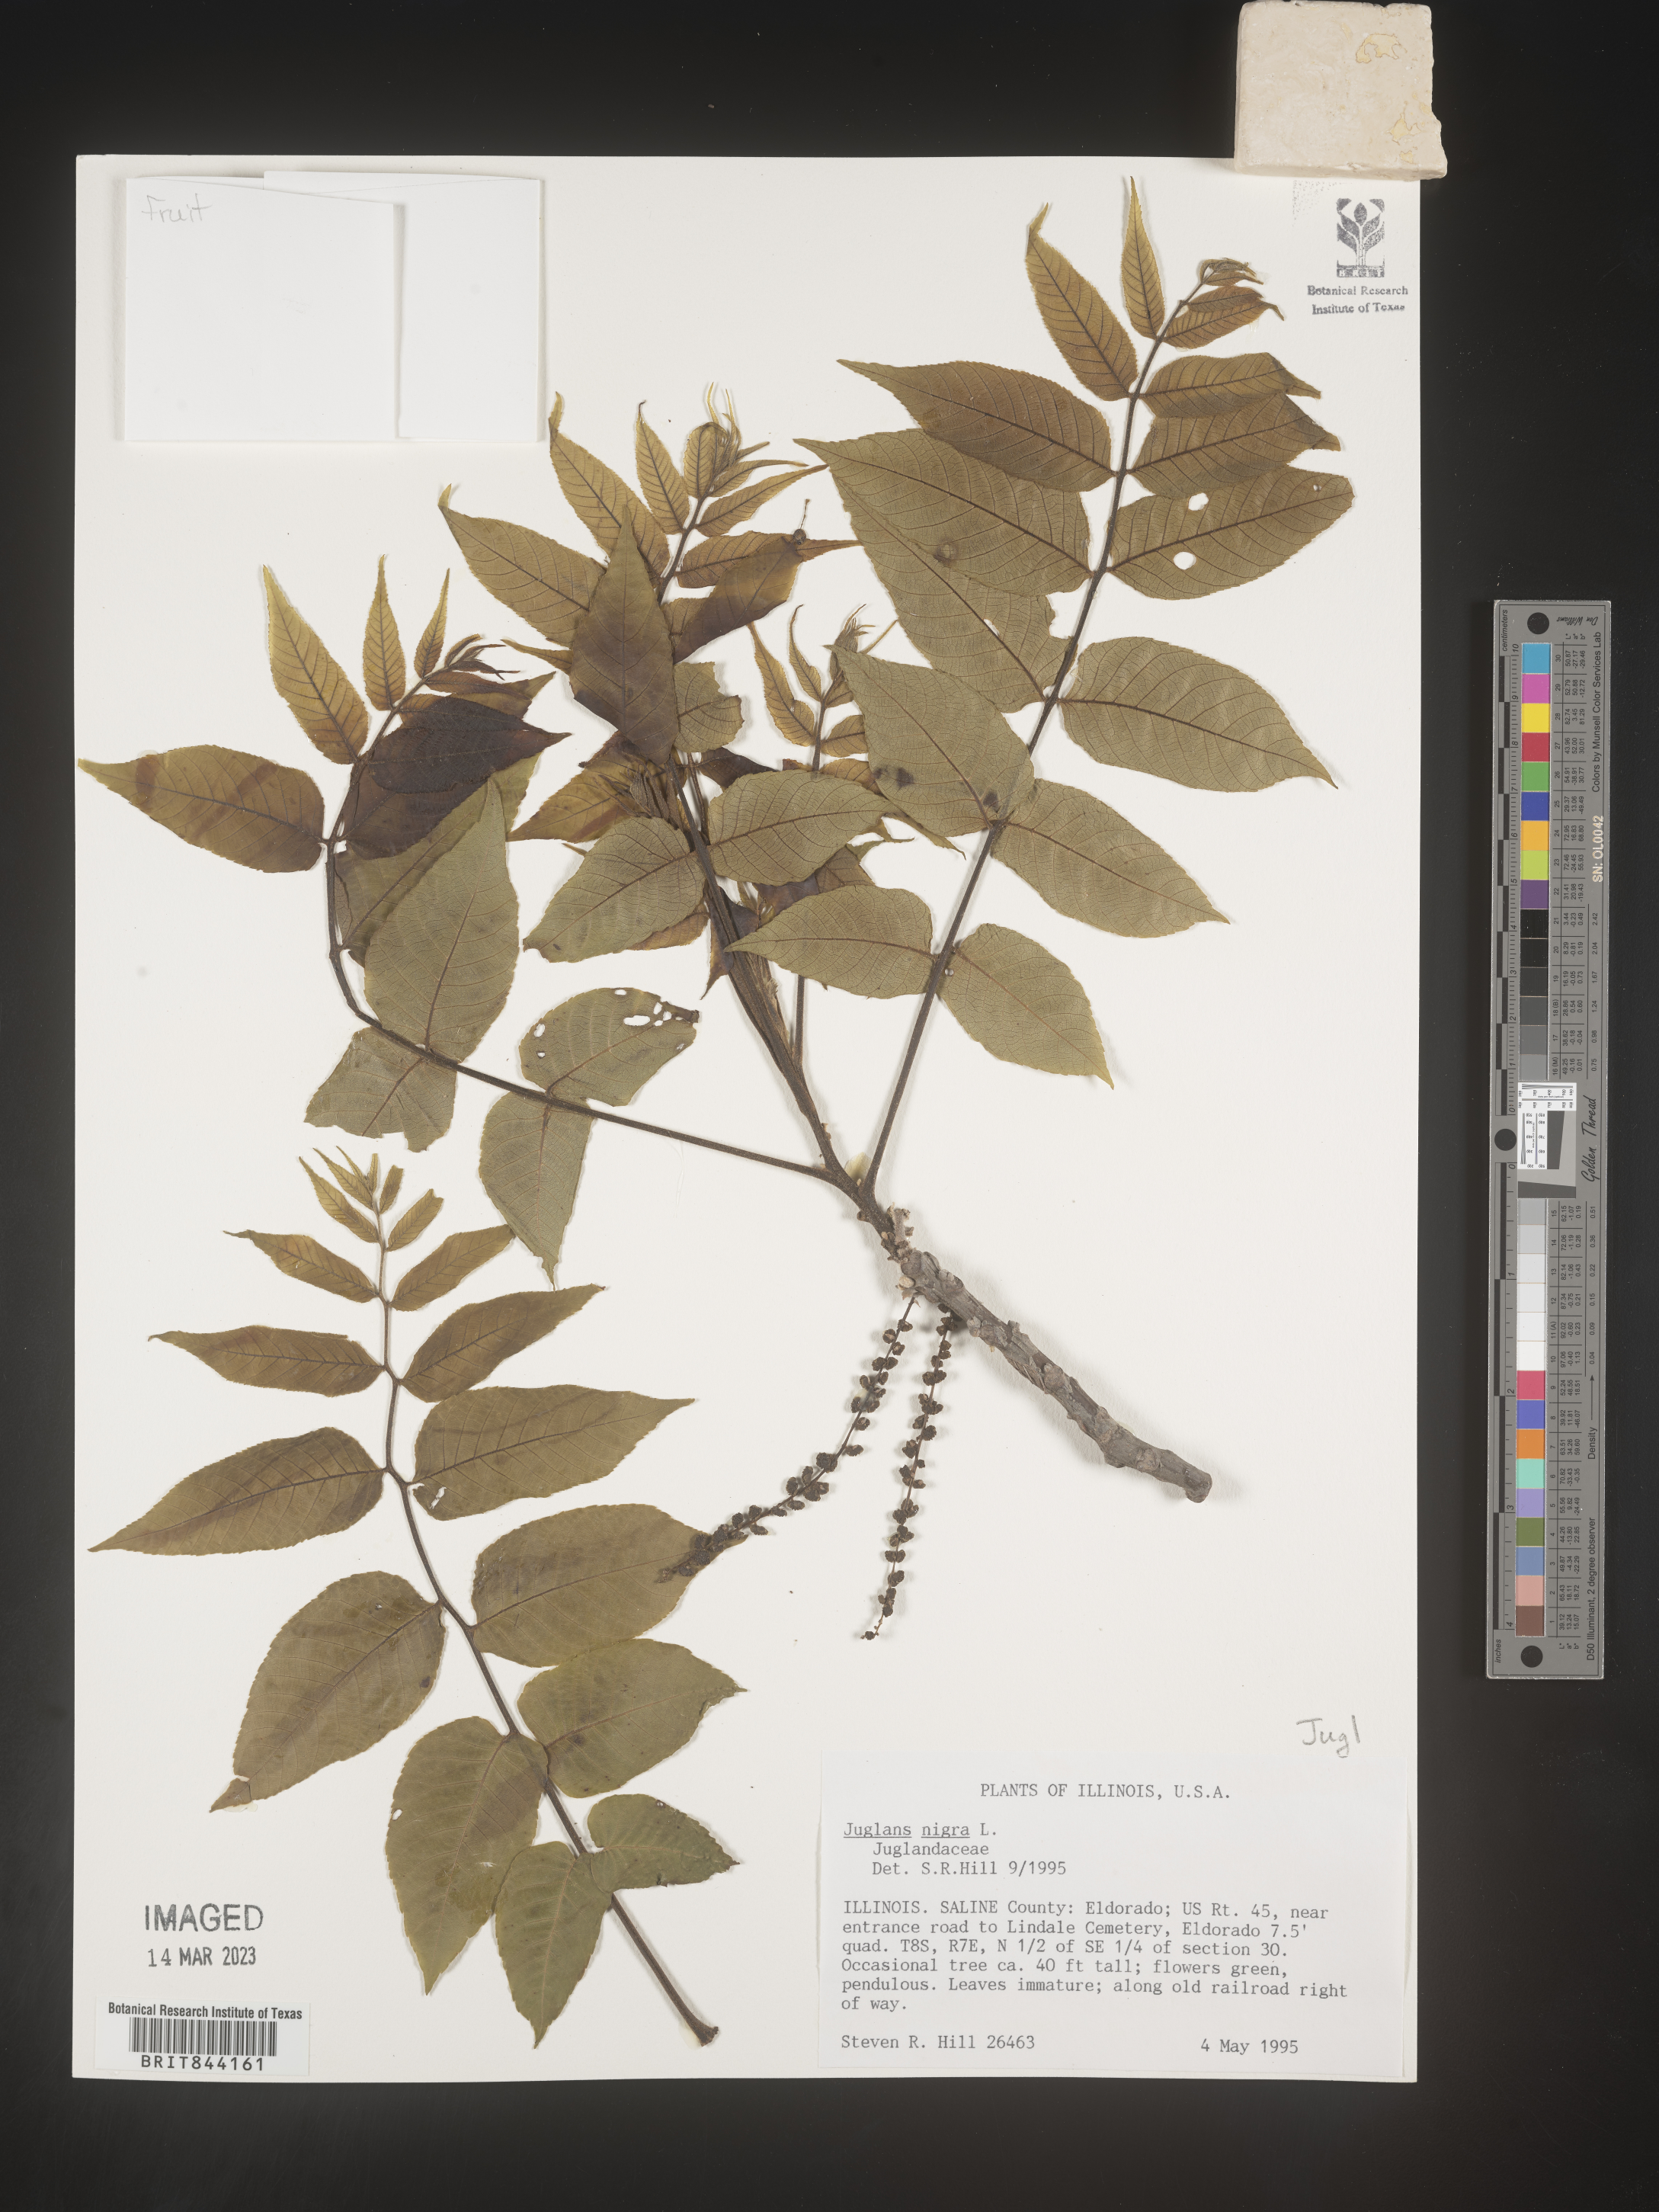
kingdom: Plantae
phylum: Tracheophyta
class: Magnoliopsida
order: Fagales
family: Juglandaceae
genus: Juglans
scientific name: Juglans nigra
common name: Black walnut
